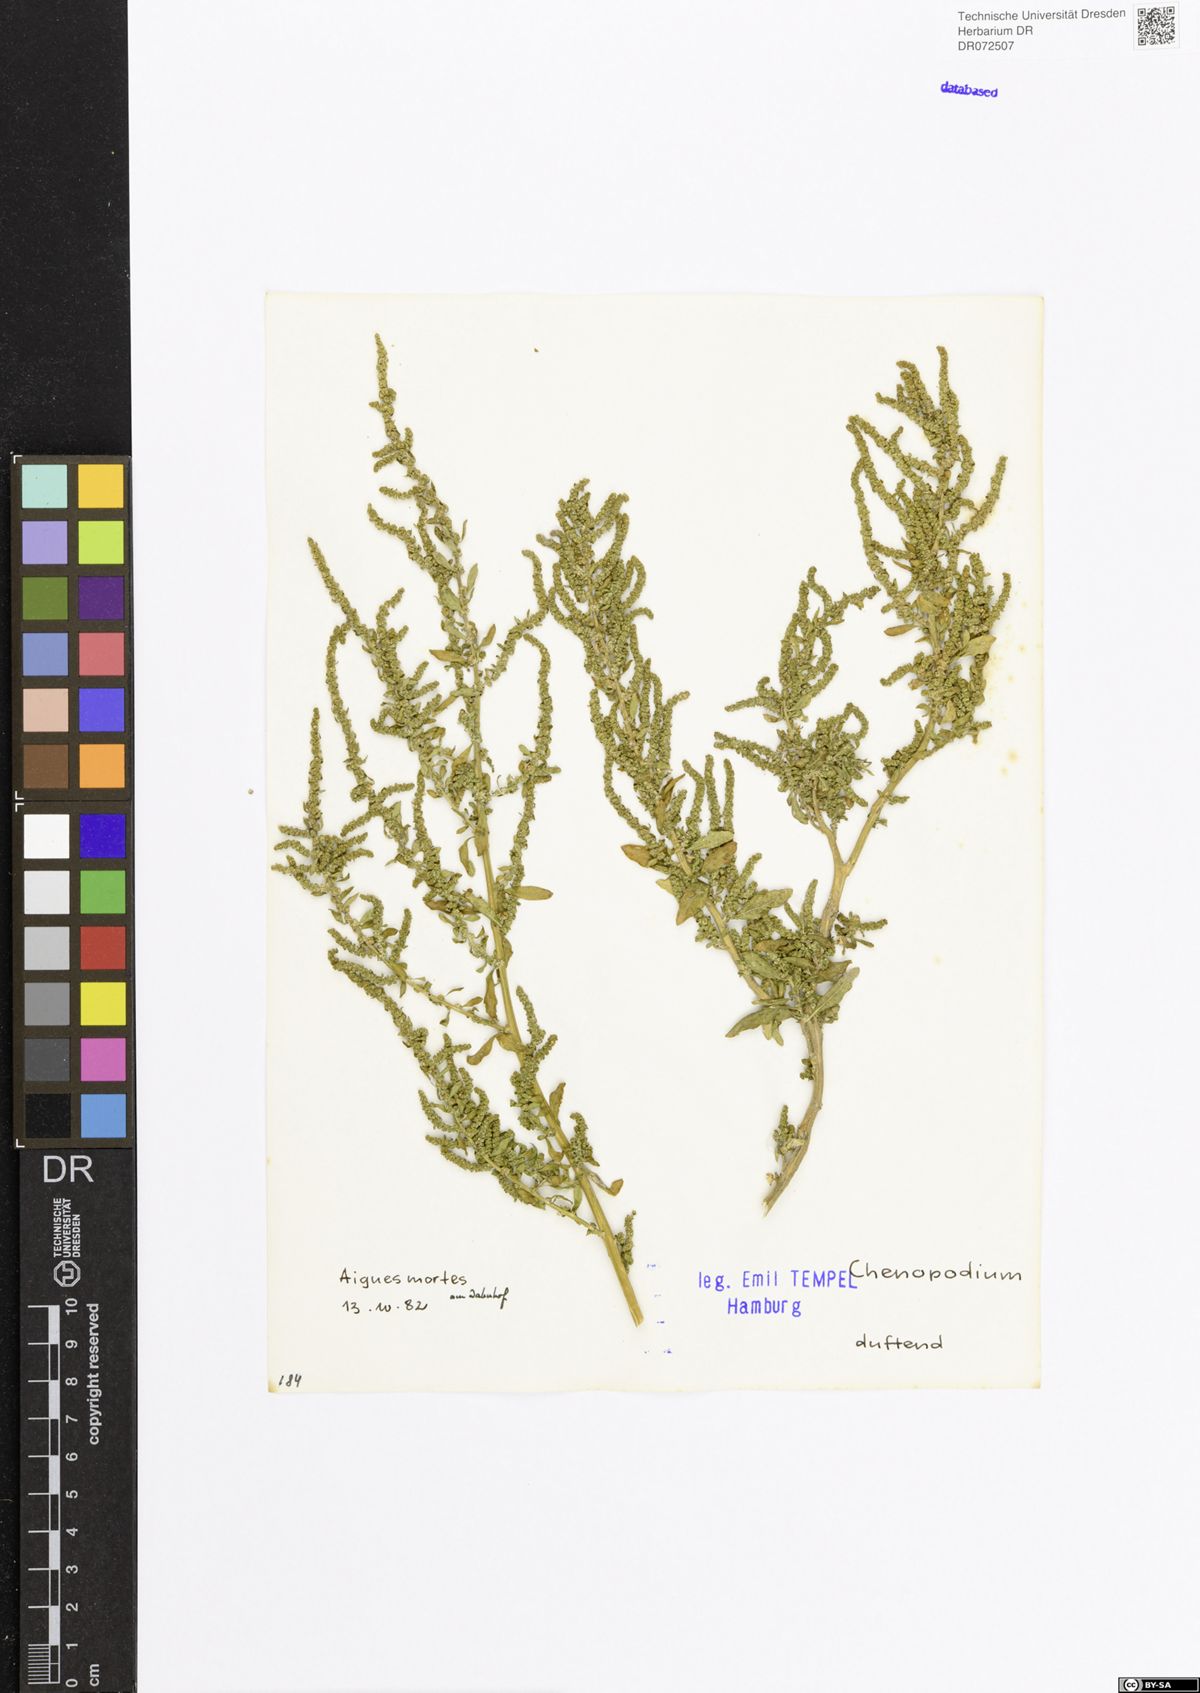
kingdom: Plantae
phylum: Tracheophyta
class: Magnoliopsida
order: Caryophyllales
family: Amaranthaceae
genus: Chenopodium
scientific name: Chenopodium
